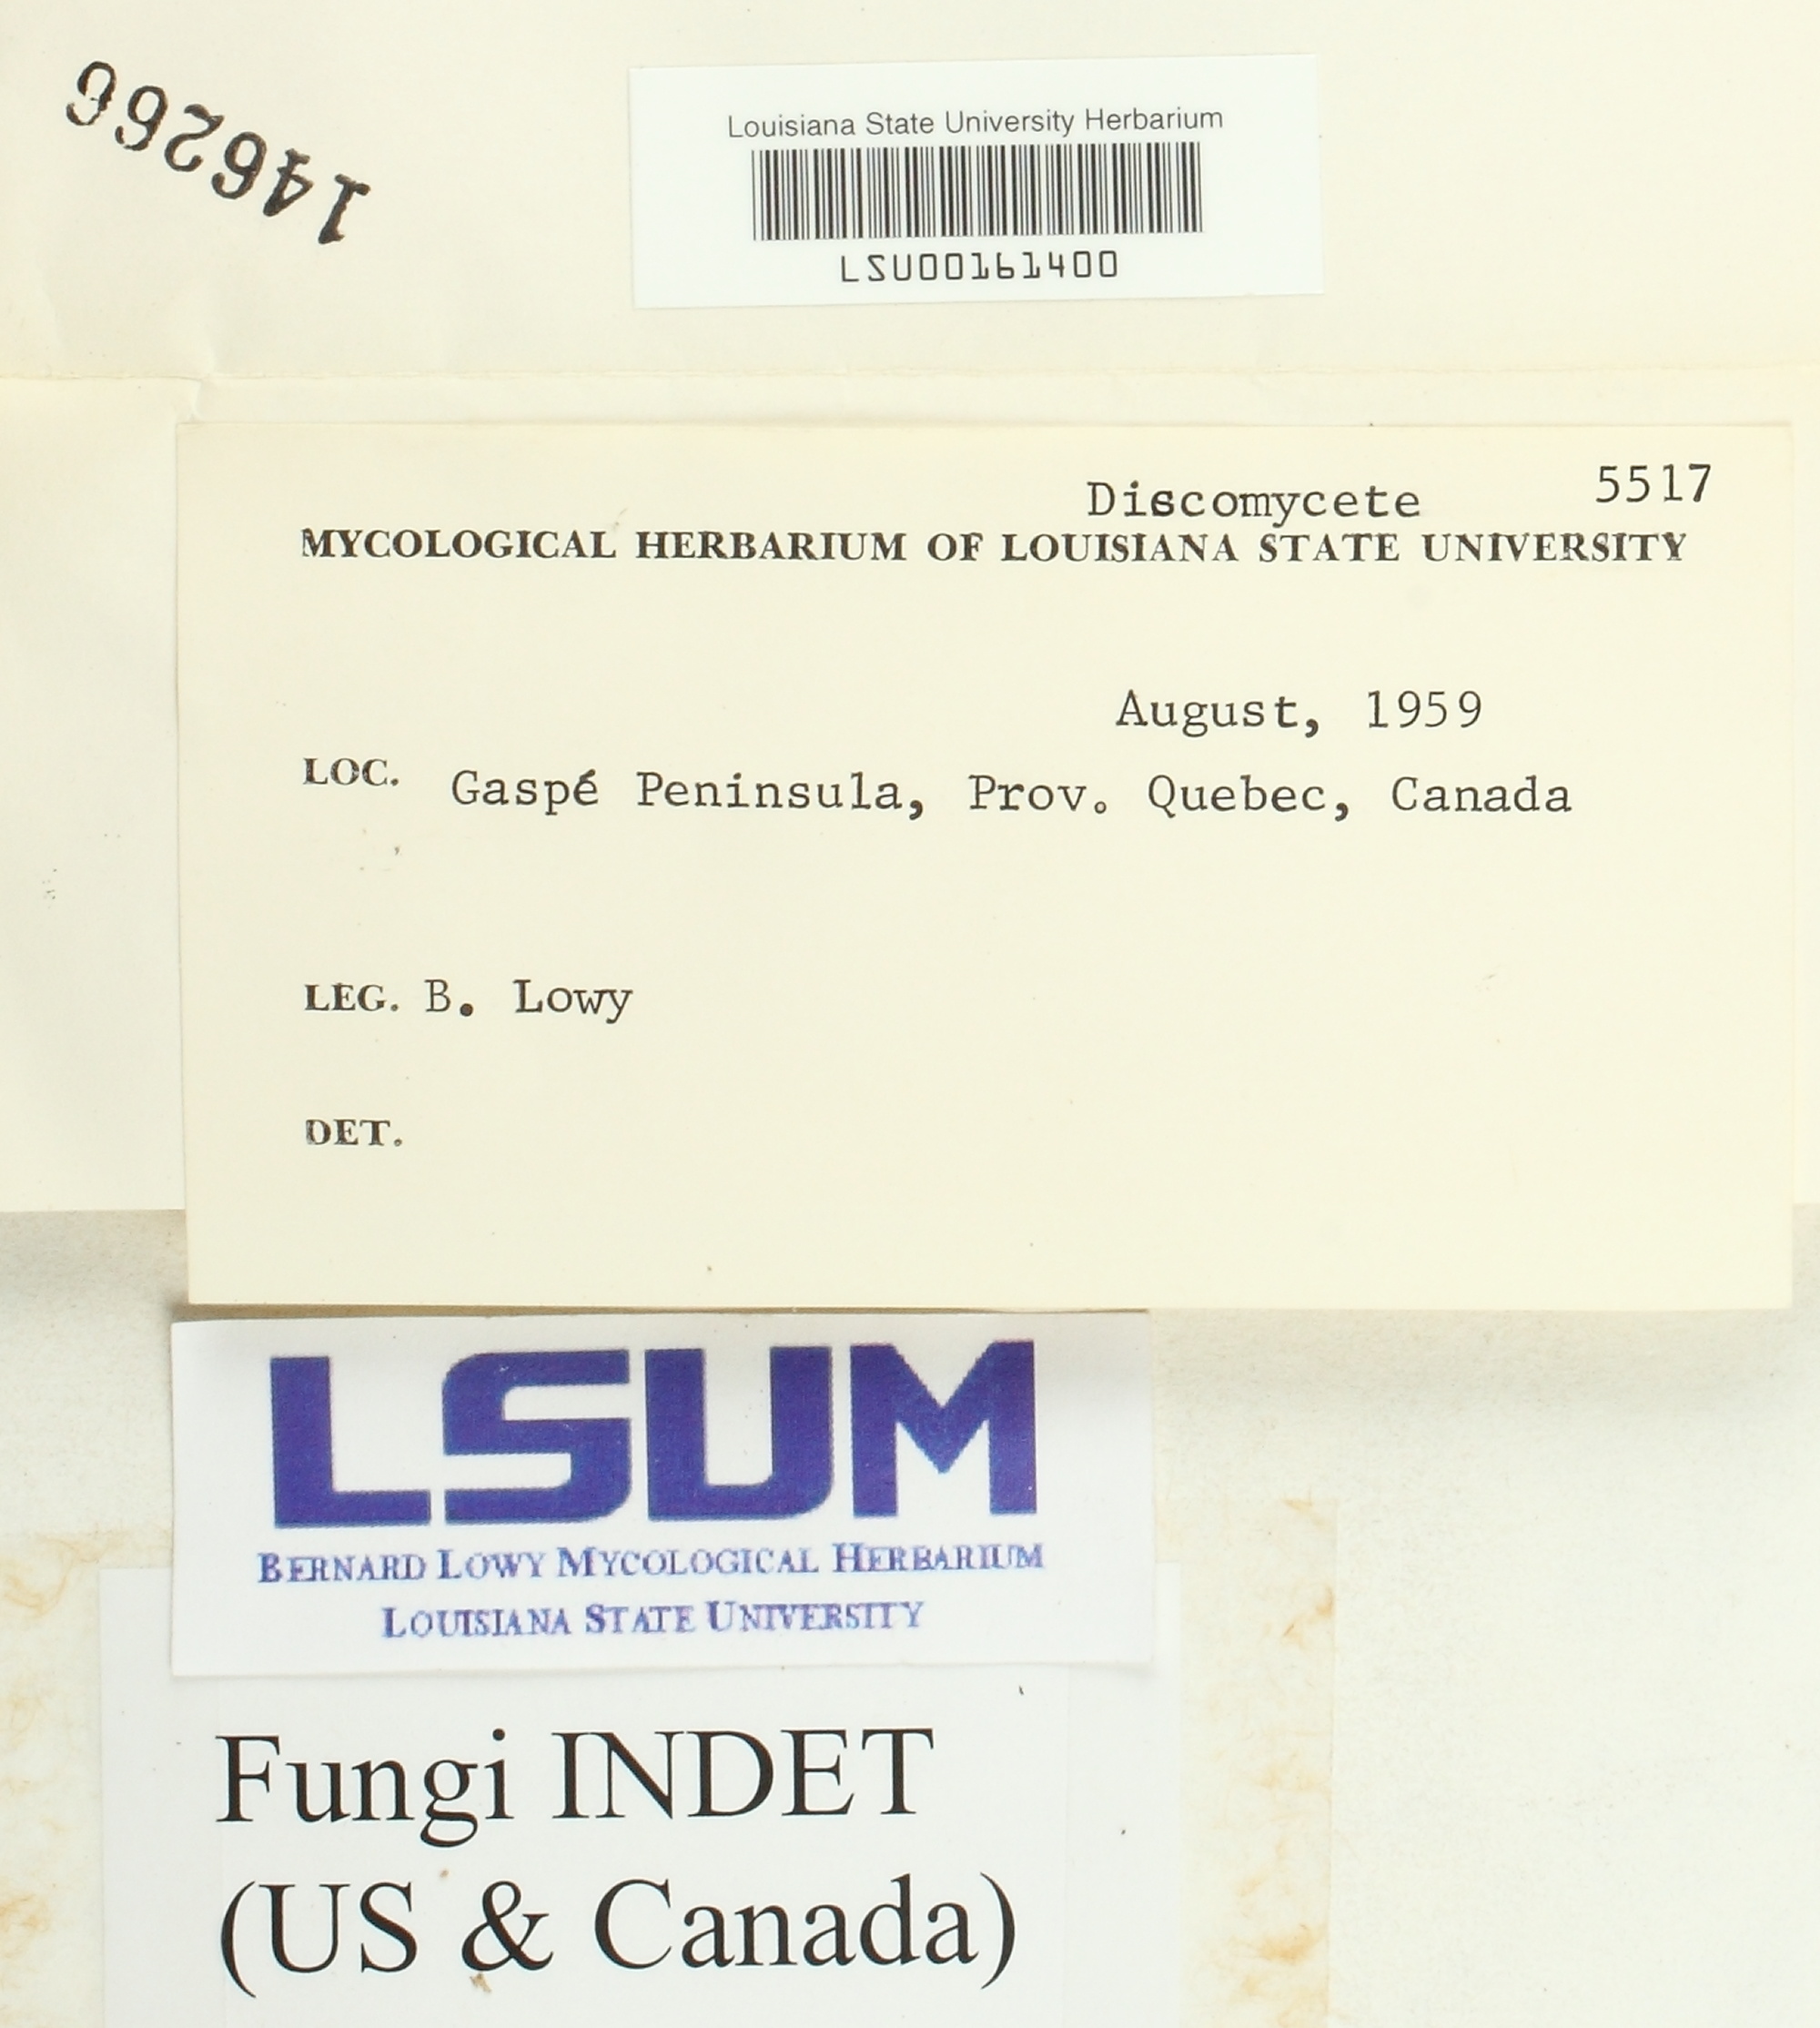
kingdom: Fungi
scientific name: Fungi
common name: Fungi
